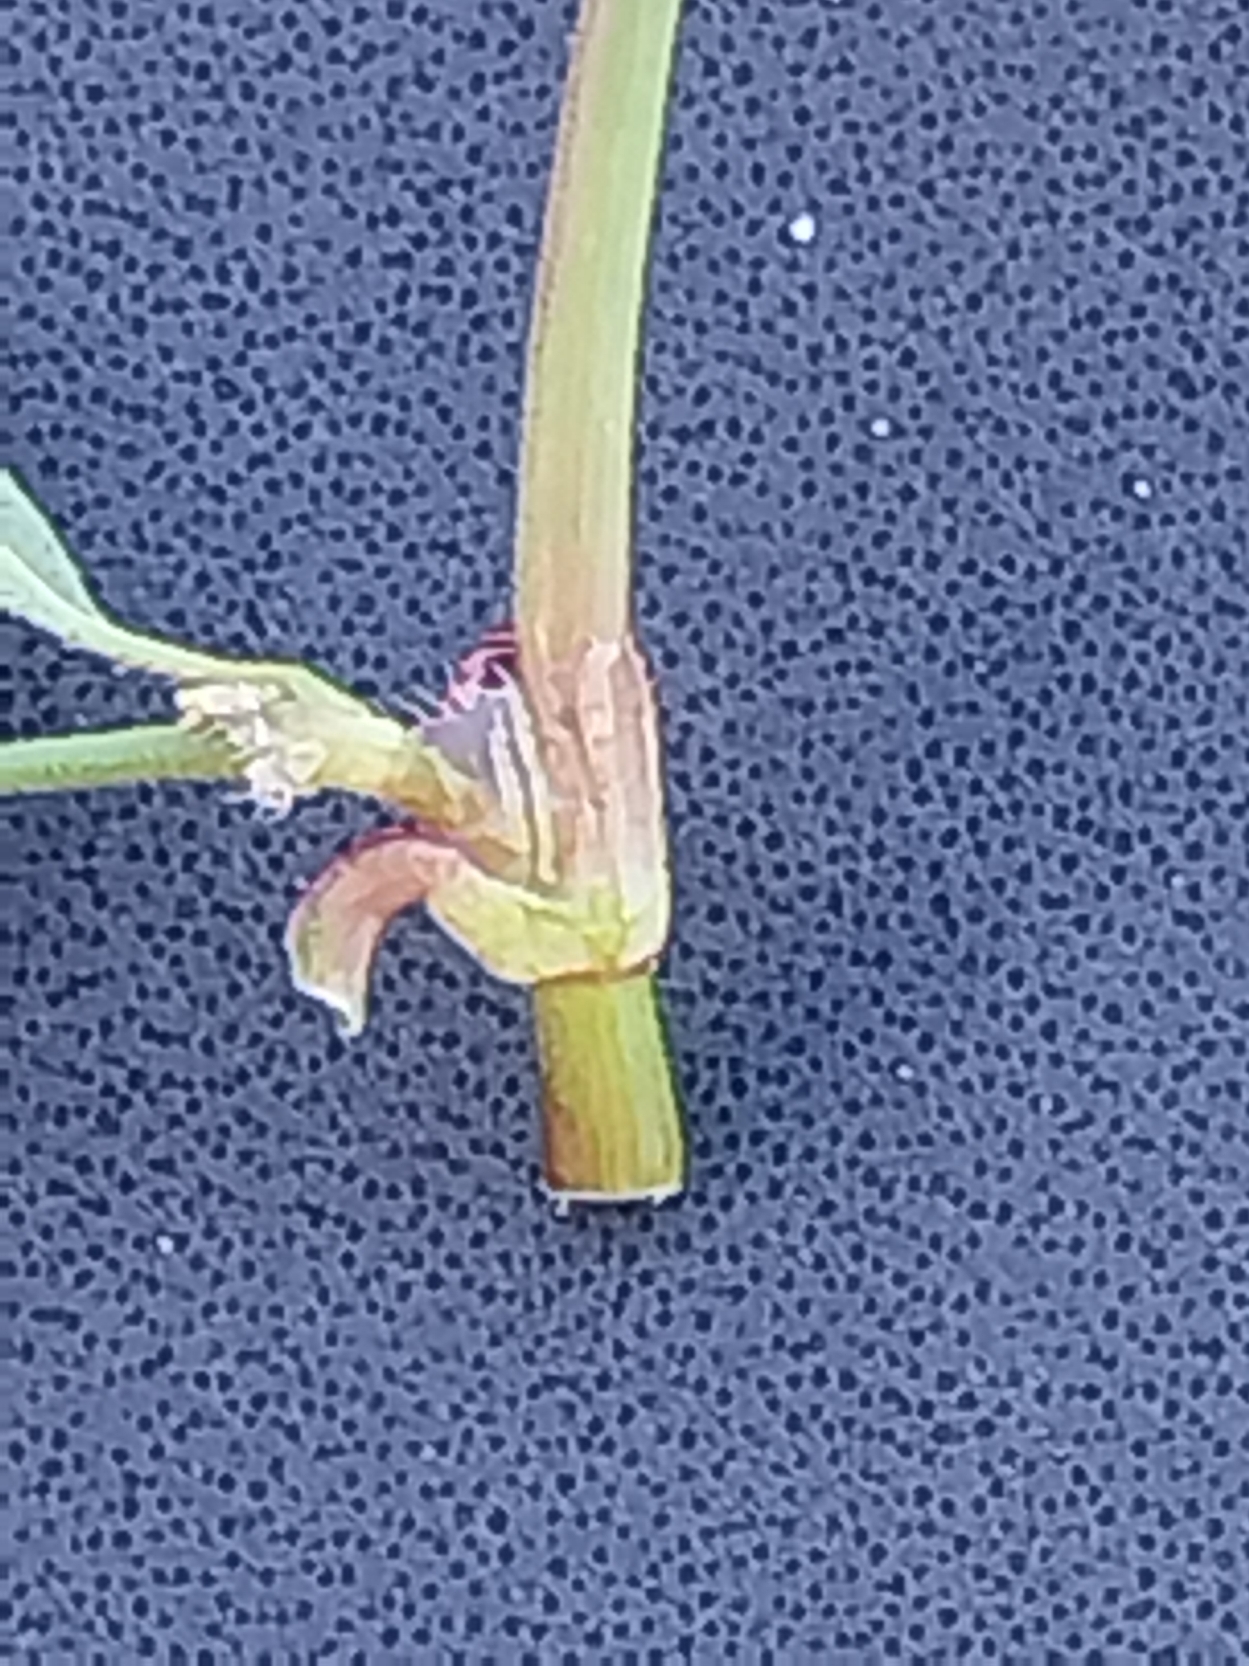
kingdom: Plantae
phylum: Tracheophyta
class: Magnoliopsida
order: Caryophyllales
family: Polygonaceae
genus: Persicaria
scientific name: Persicaria maculosa
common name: Fersken-pileurt
